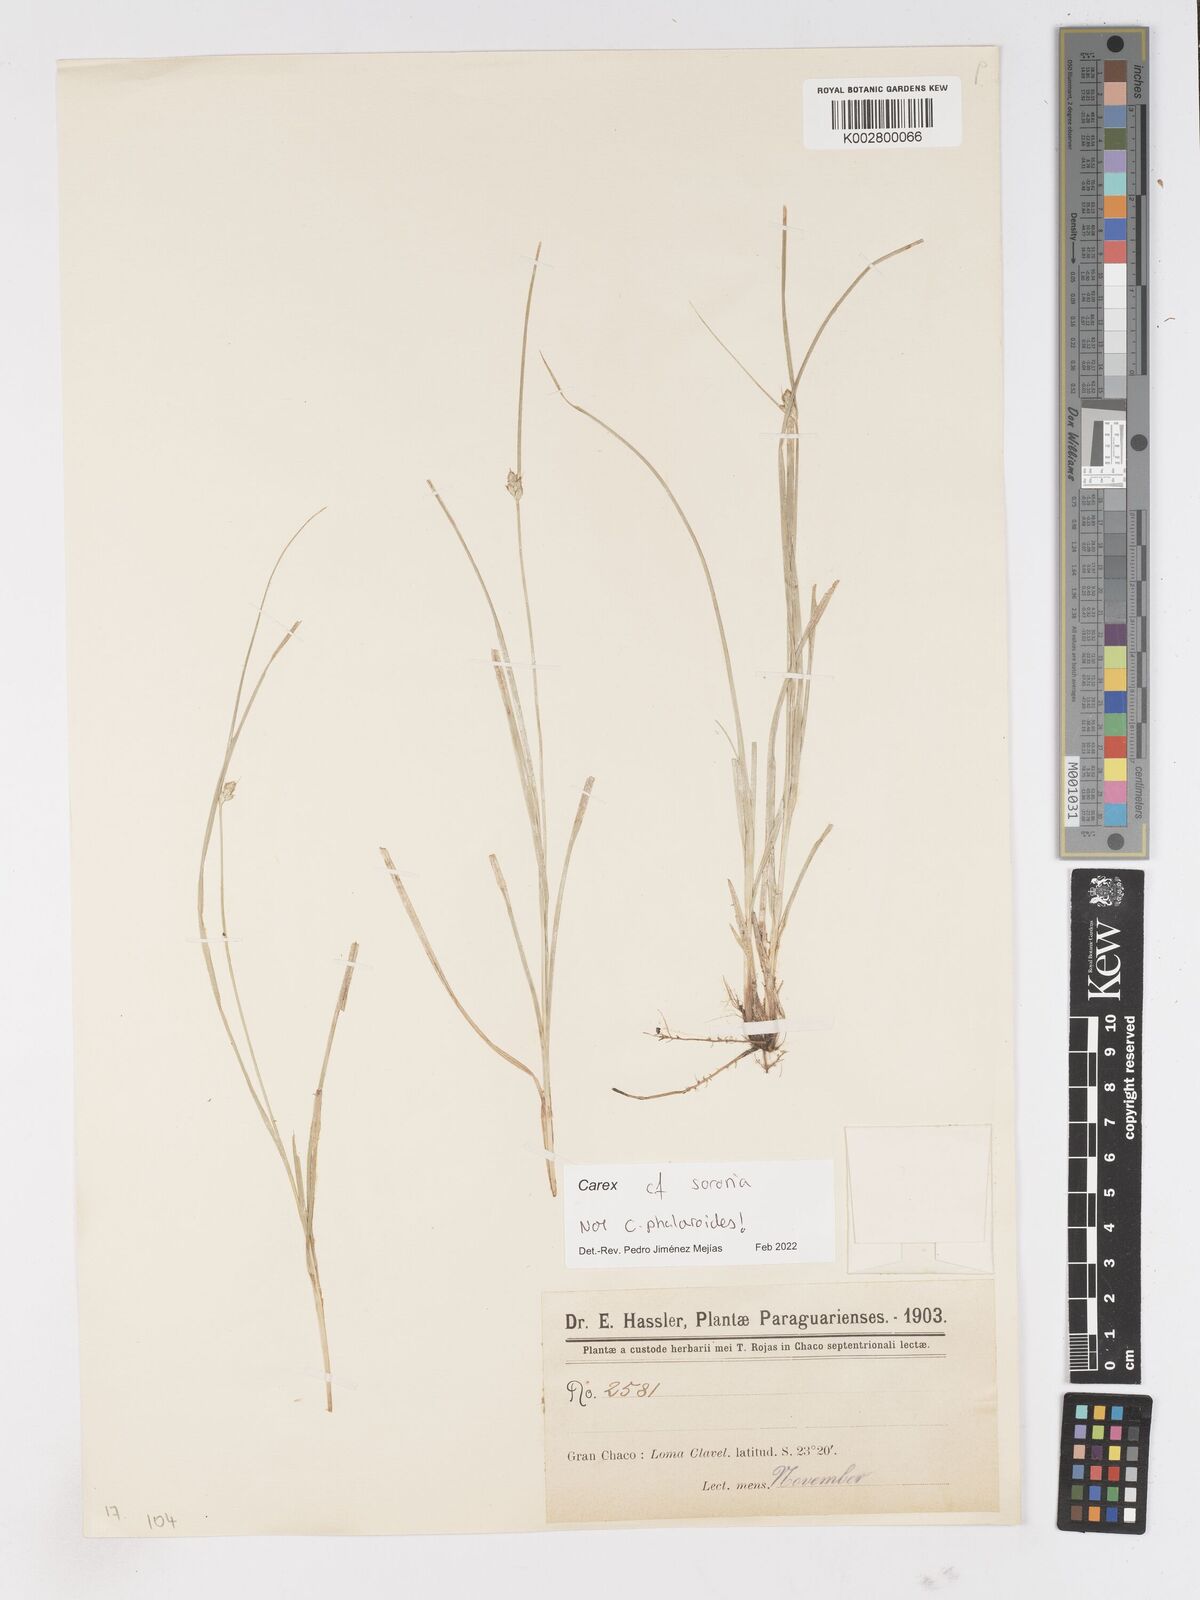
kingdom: Plantae
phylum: Tracheophyta
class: Liliopsida
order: Poales
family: Cyperaceae
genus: Carex
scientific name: Carex sororia
